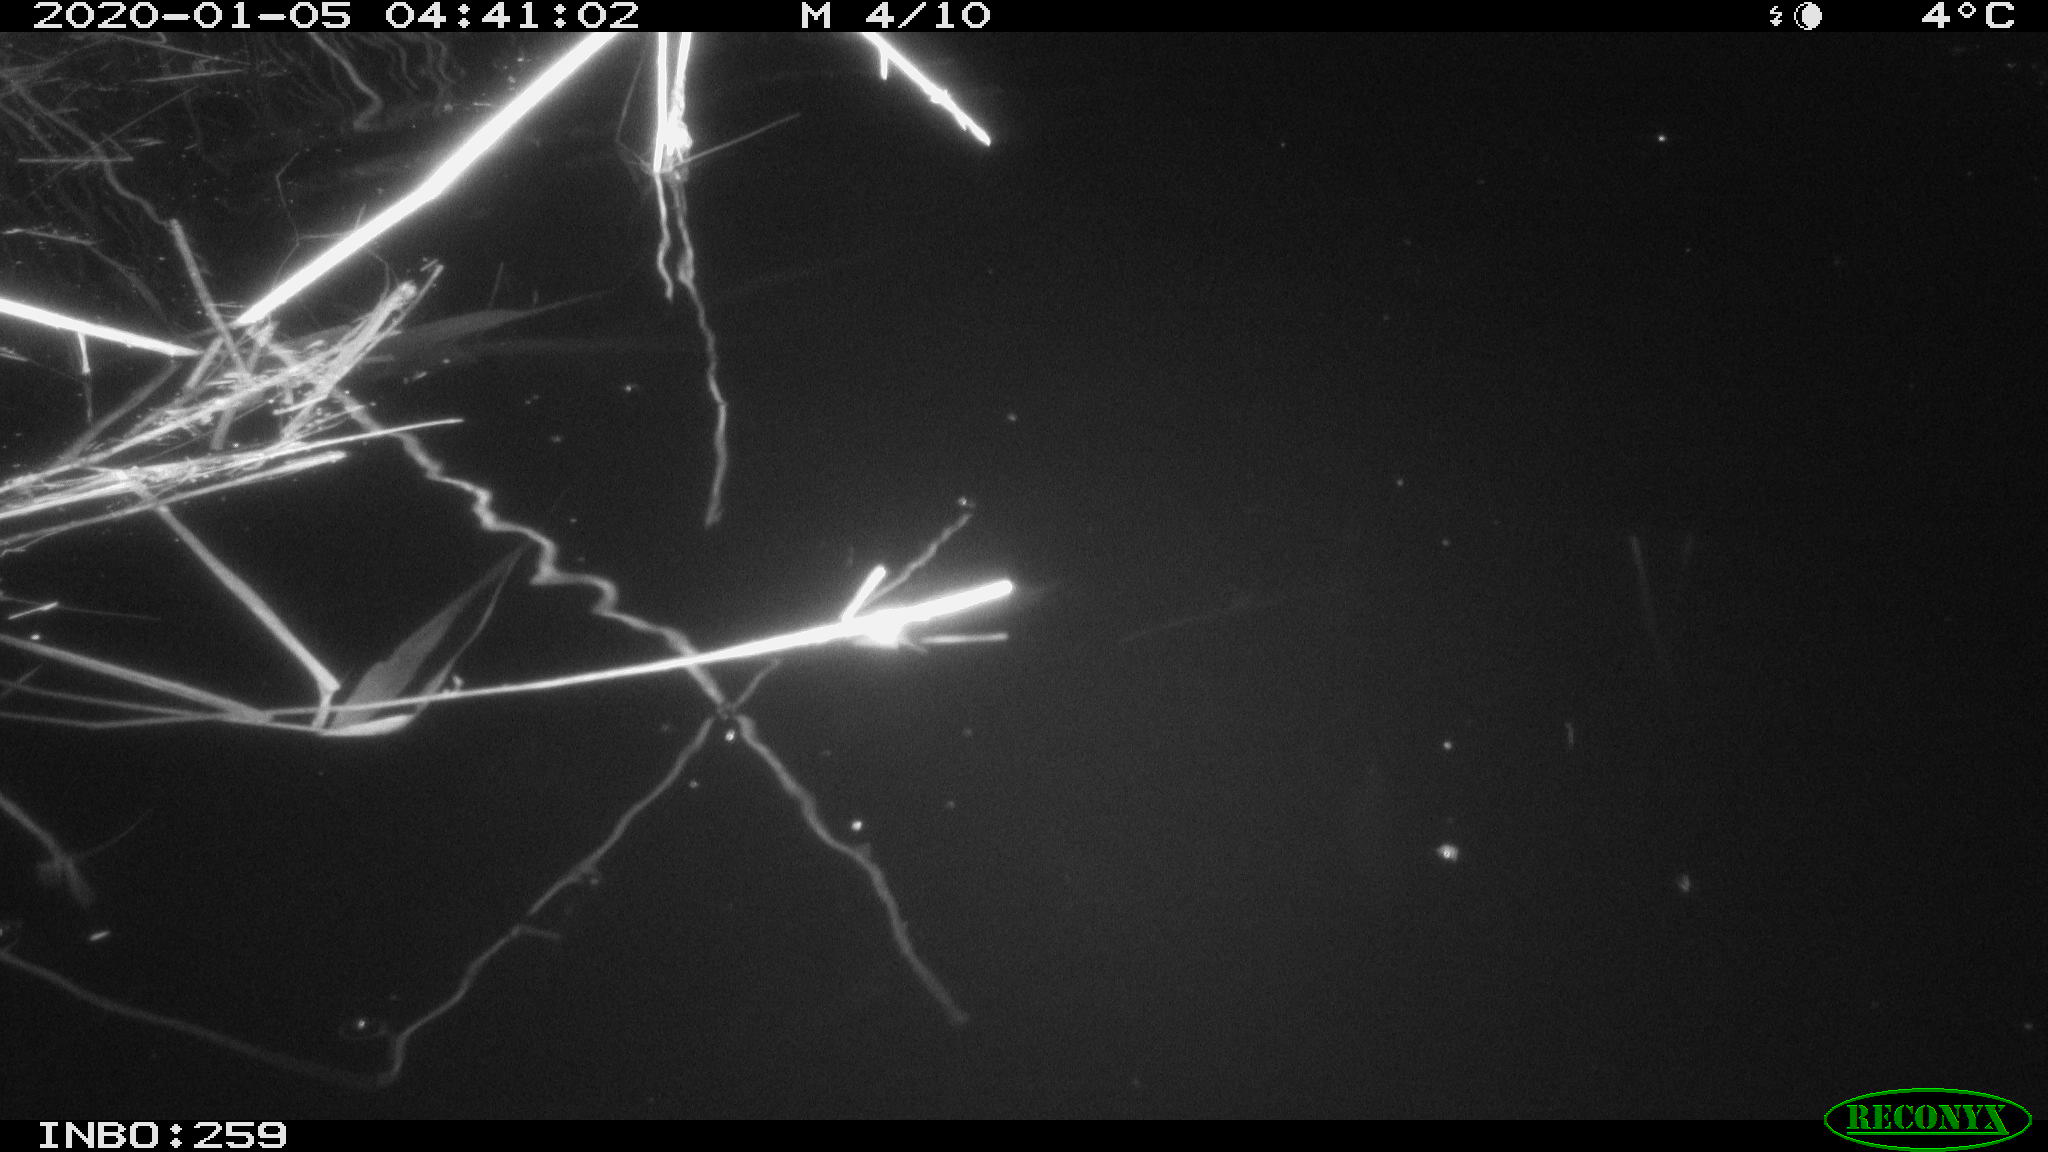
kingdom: Animalia
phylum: Chordata
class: Mammalia
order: Rodentia
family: Cricetidae
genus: Ondatra
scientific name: Ondatra zibethicus
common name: Muskrat
